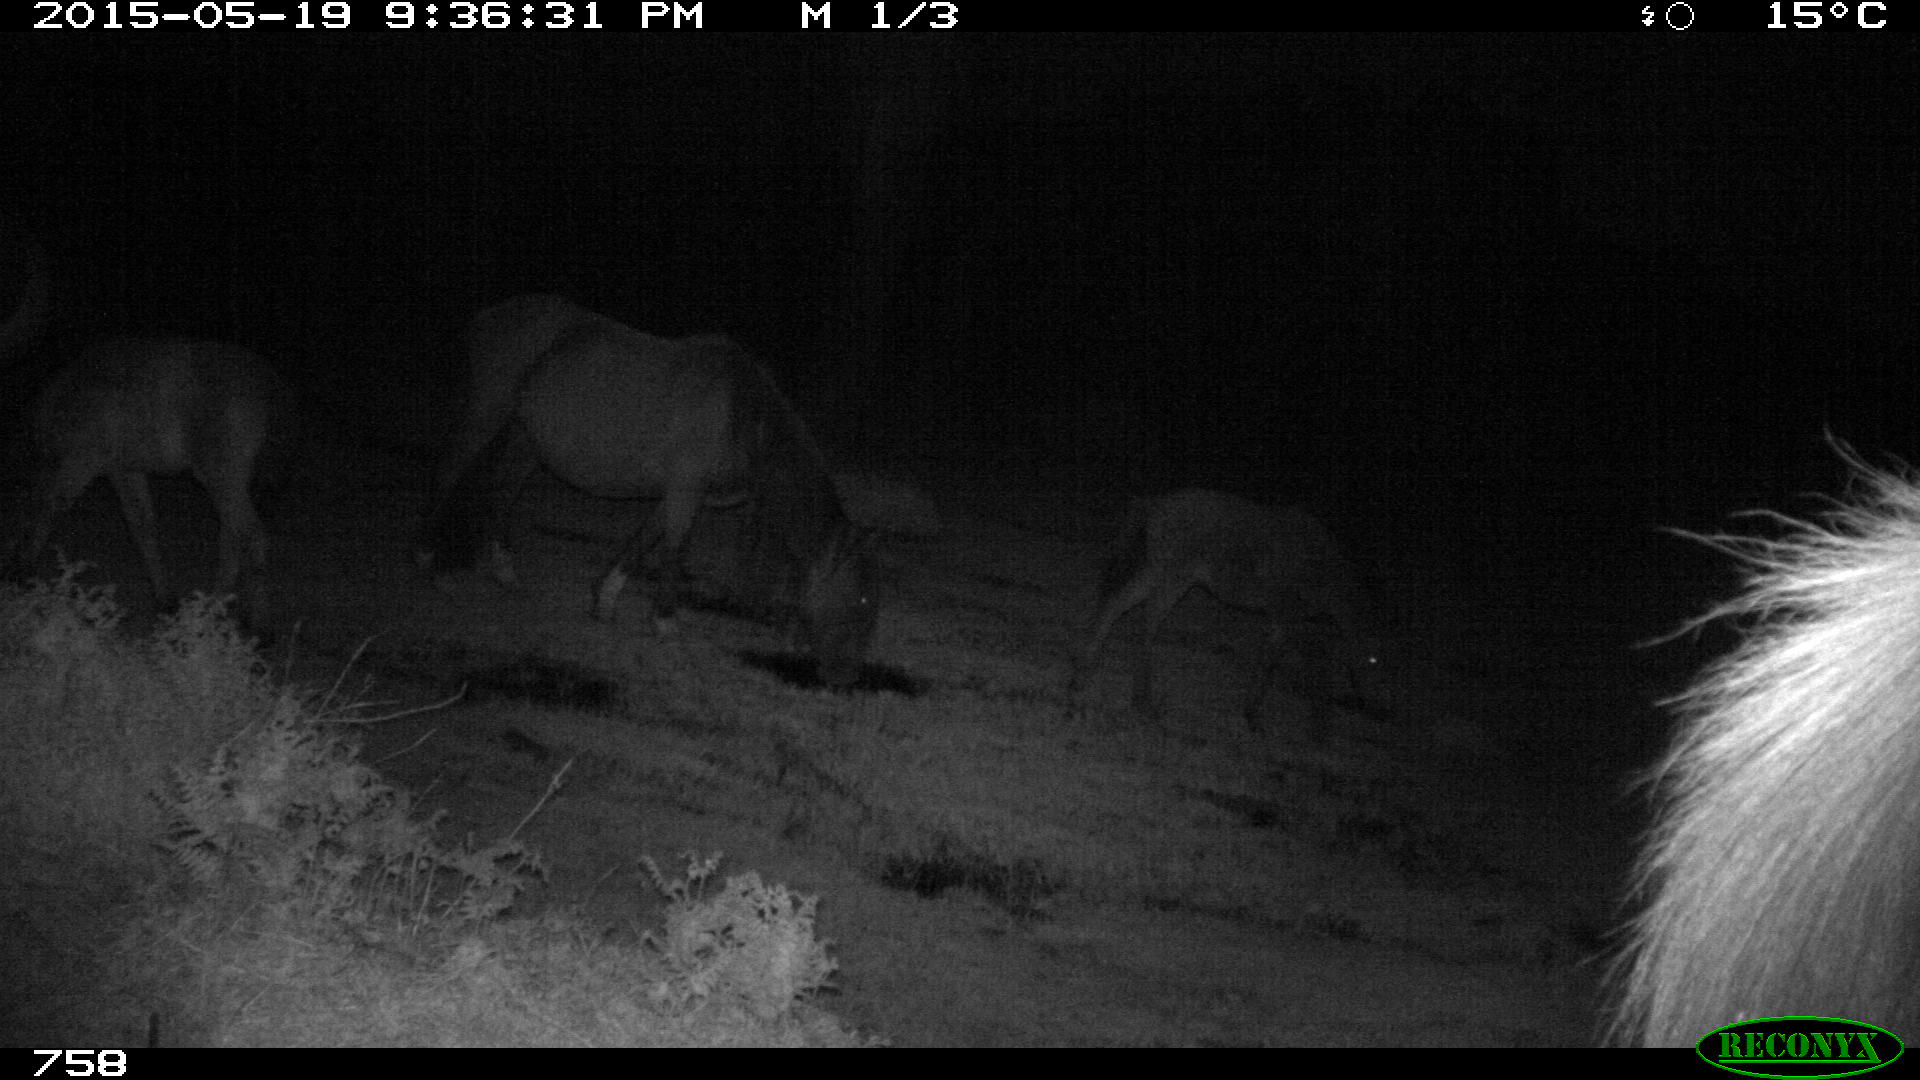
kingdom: Animalia
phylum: Chordata
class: Mammalia
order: Perissodactyla
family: Equidae
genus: Equus
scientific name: Equus caballus
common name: Horse
